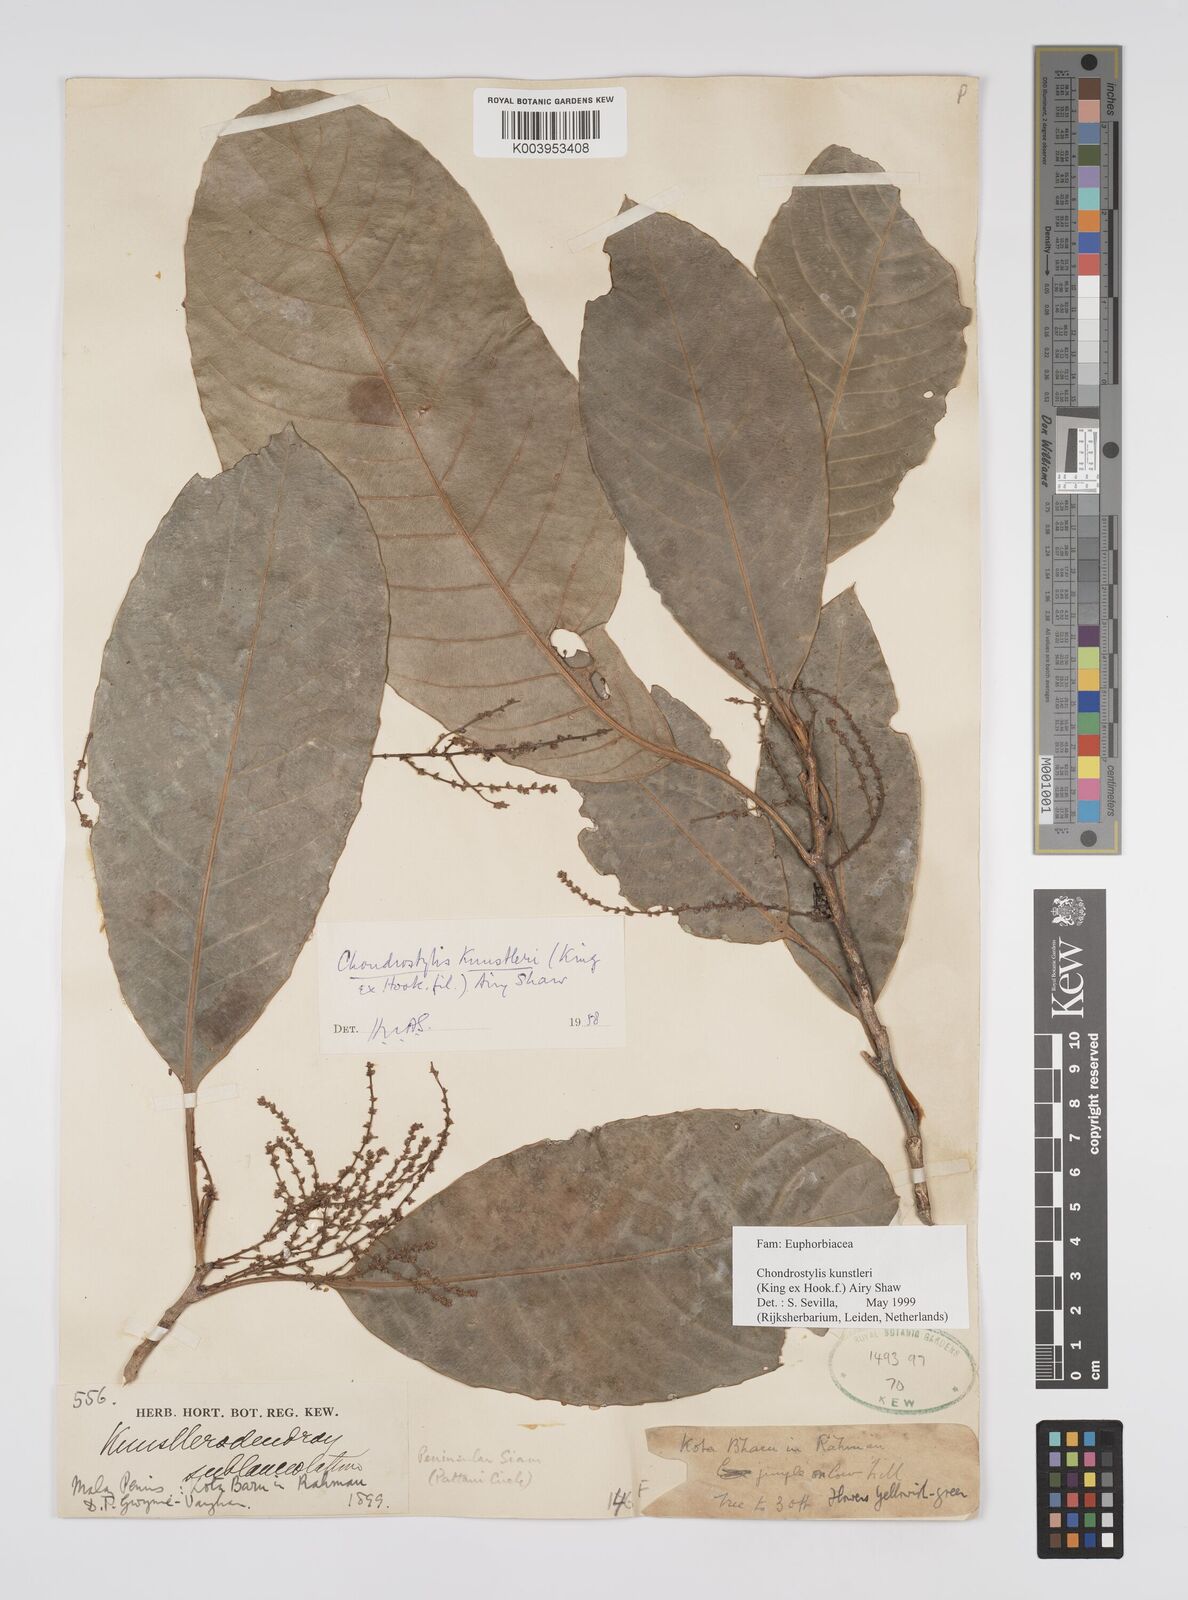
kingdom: Plantae
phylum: Tracheophyta
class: Magnoliopsida
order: Malpighiales
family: Euphorbiaceae
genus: Chondrostylis
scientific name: Chondrostylis kunstleri
